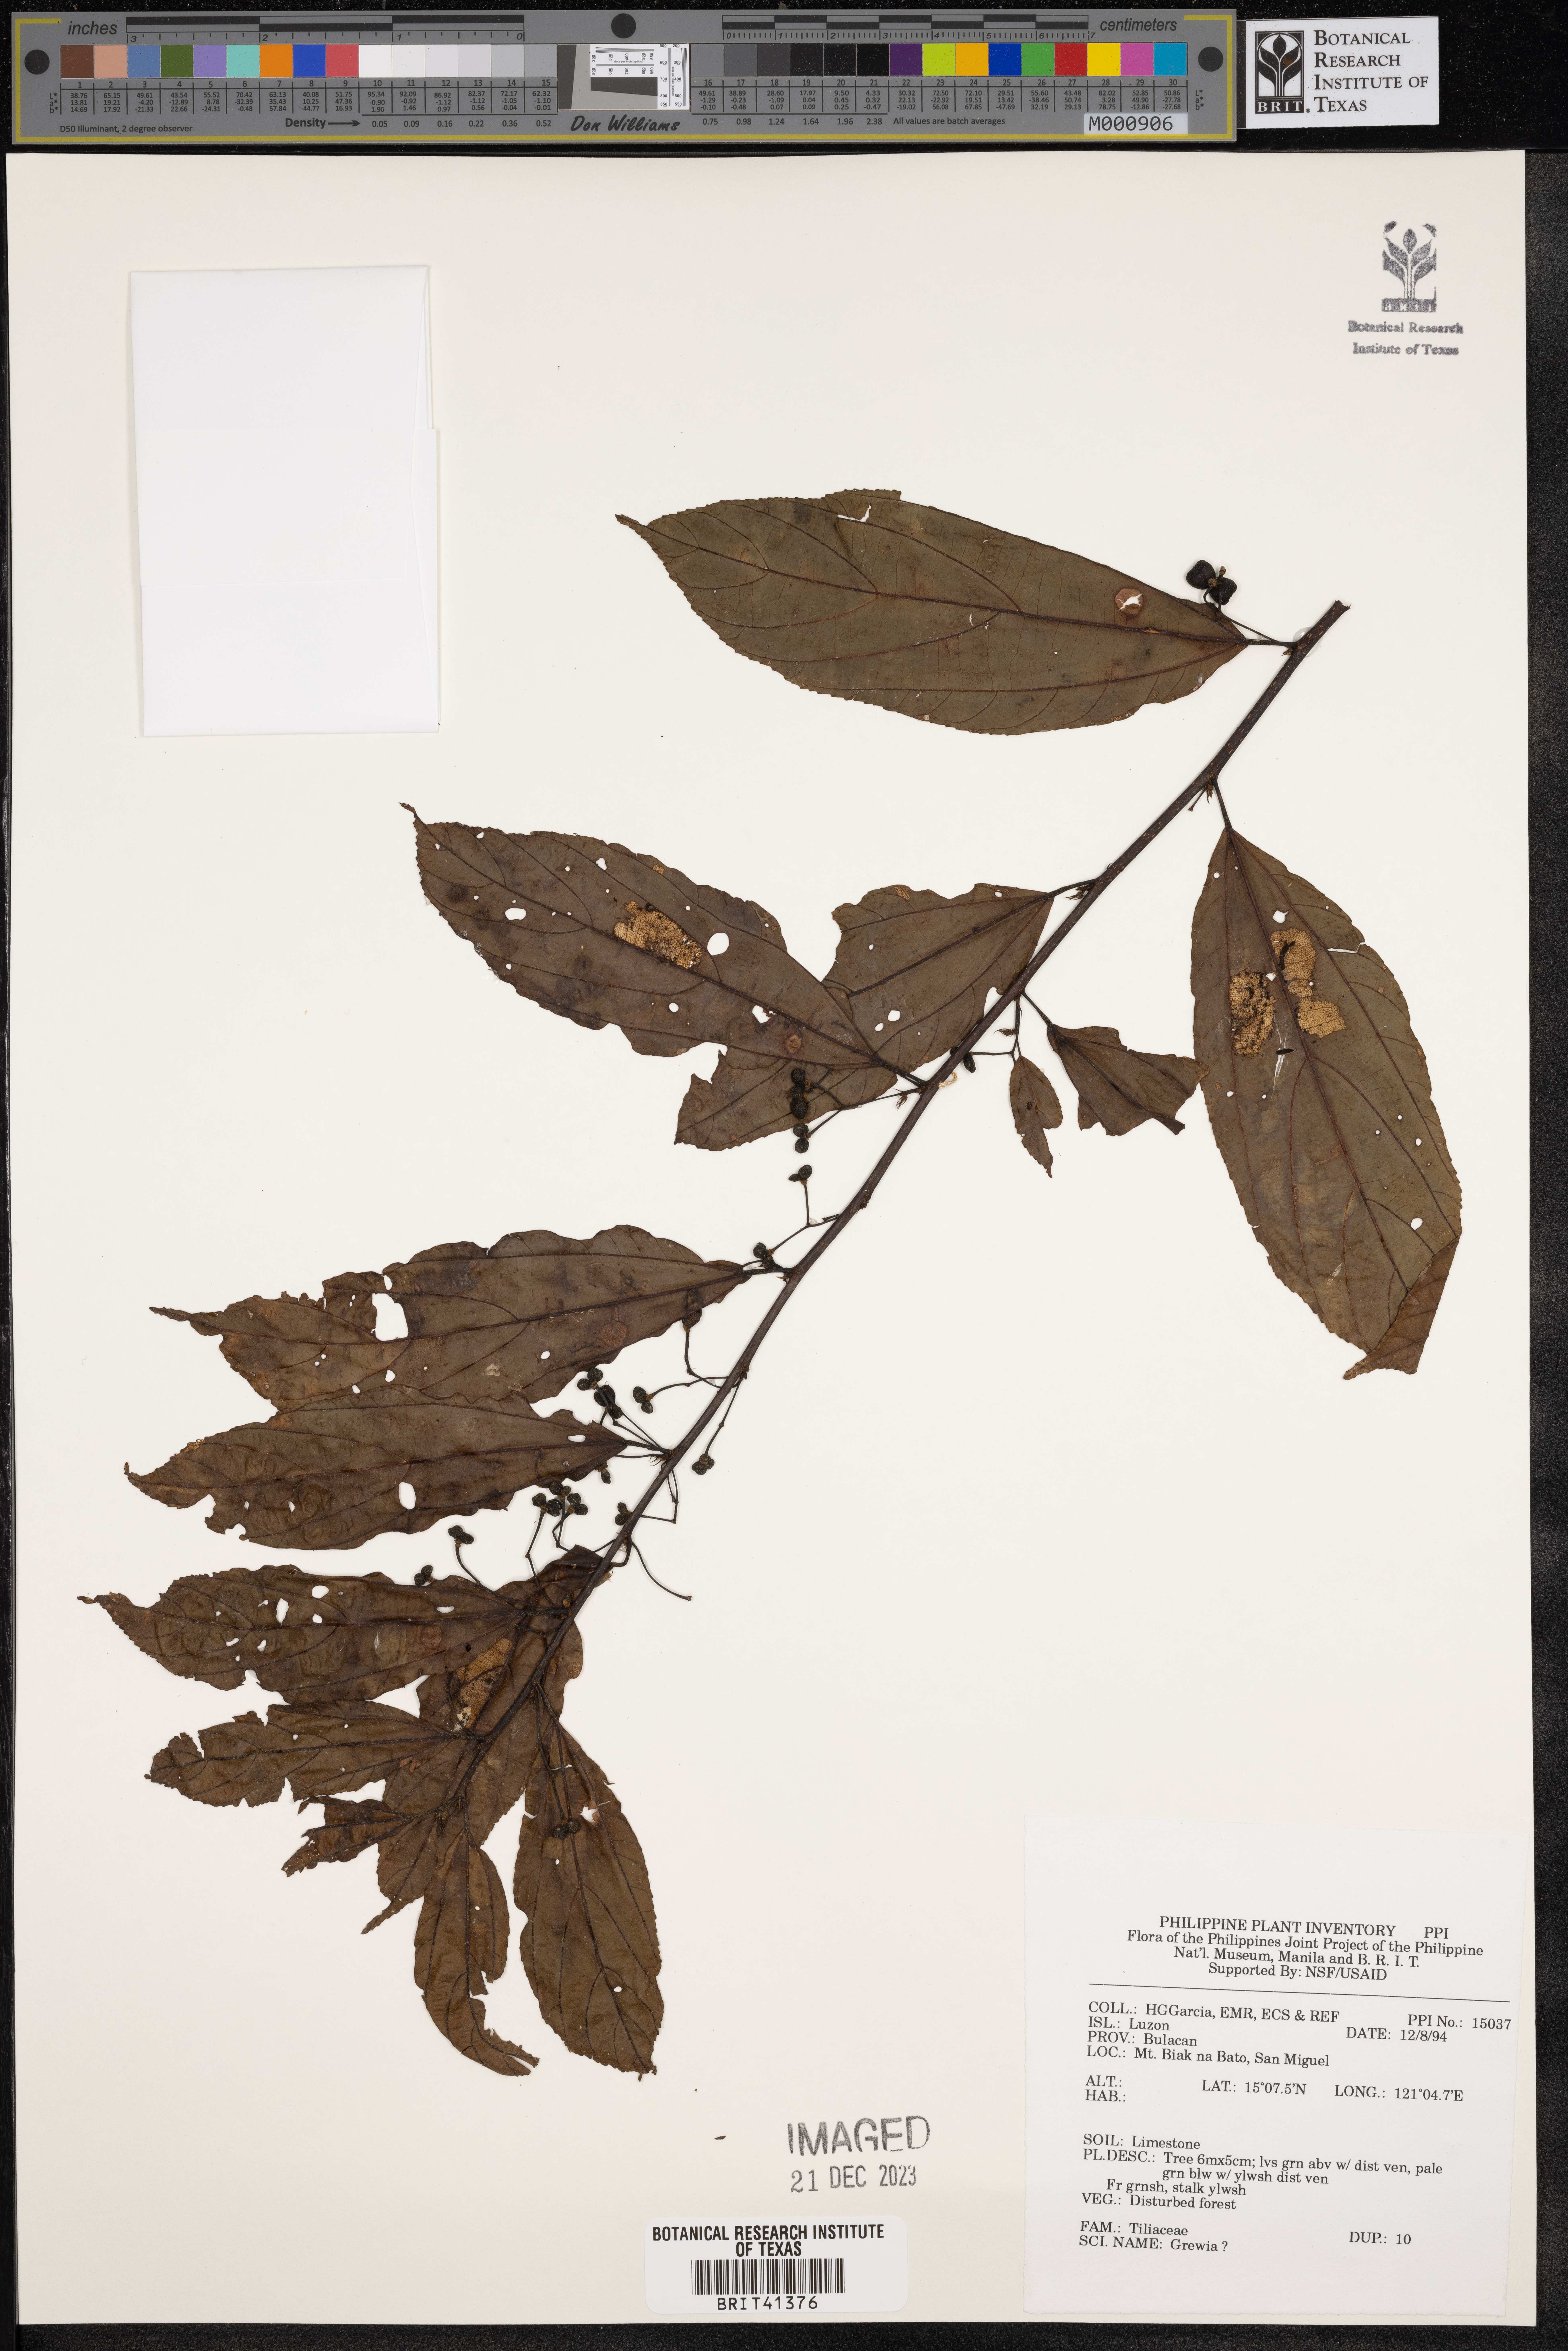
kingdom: Plantae
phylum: Tracheophyta
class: Magnoliopsida
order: Malvales
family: Malvaceae
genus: Grewia
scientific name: Grewia
